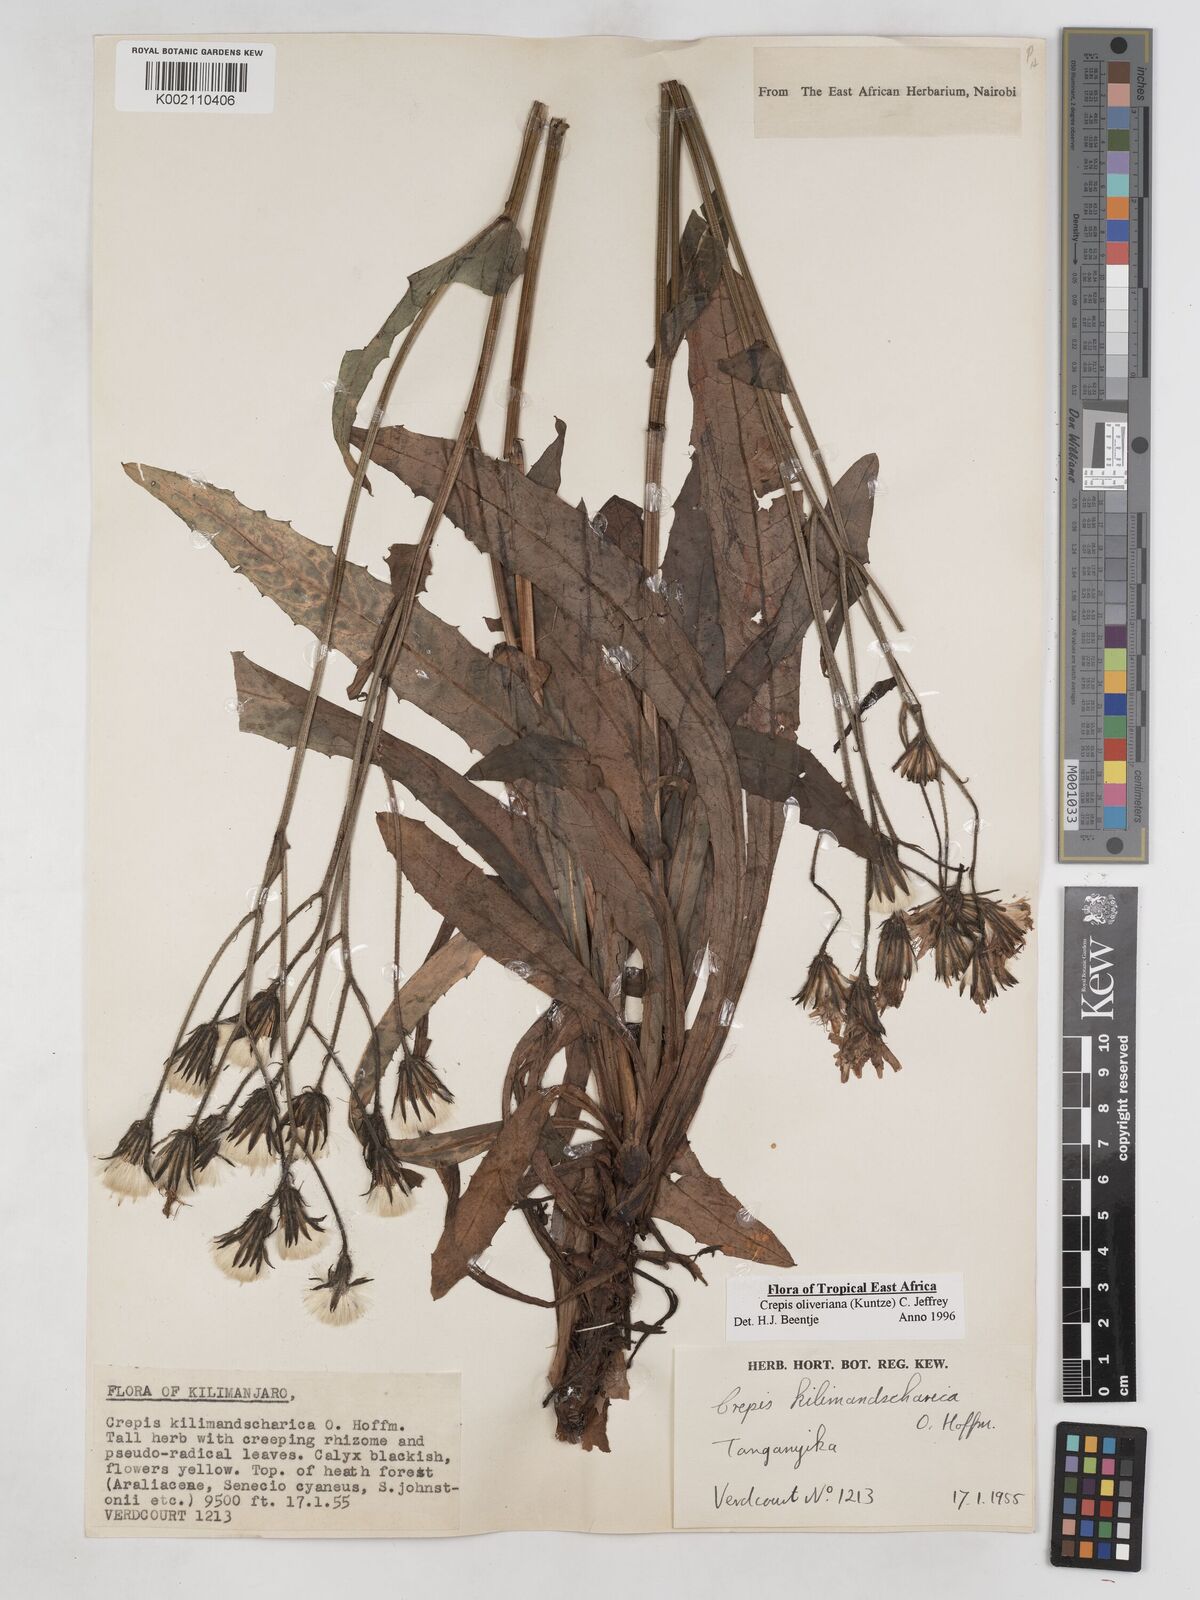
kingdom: Plantae
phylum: Tracheophyta
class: Magnoliopsida
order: Asterales
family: Asteraceae
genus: Crepis
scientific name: Crepis hypochoeridea
